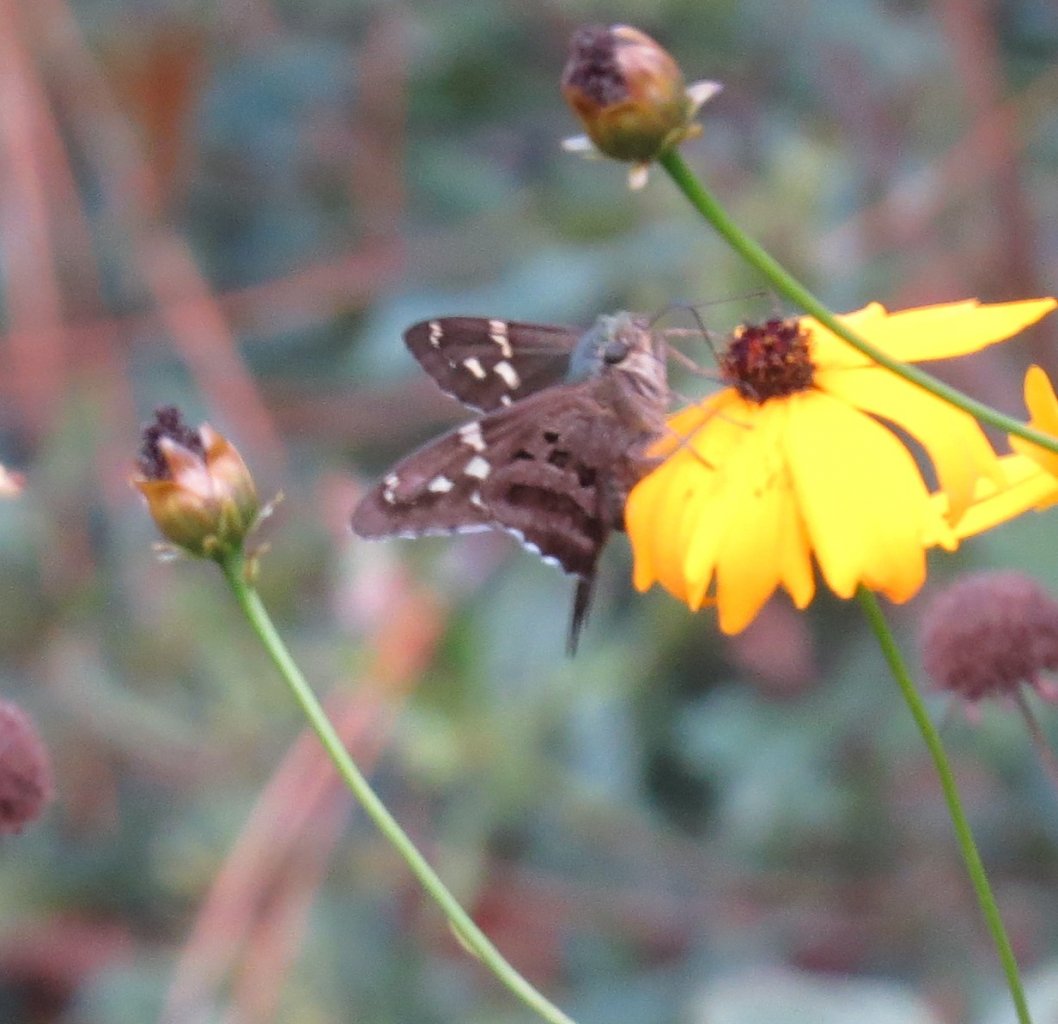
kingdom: Animalia
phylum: Arthropoda
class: Insecta
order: Lepidoptera
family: Hesperiidae
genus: Urbanus
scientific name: Urbanus proteus
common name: Long-tailed Skipper
